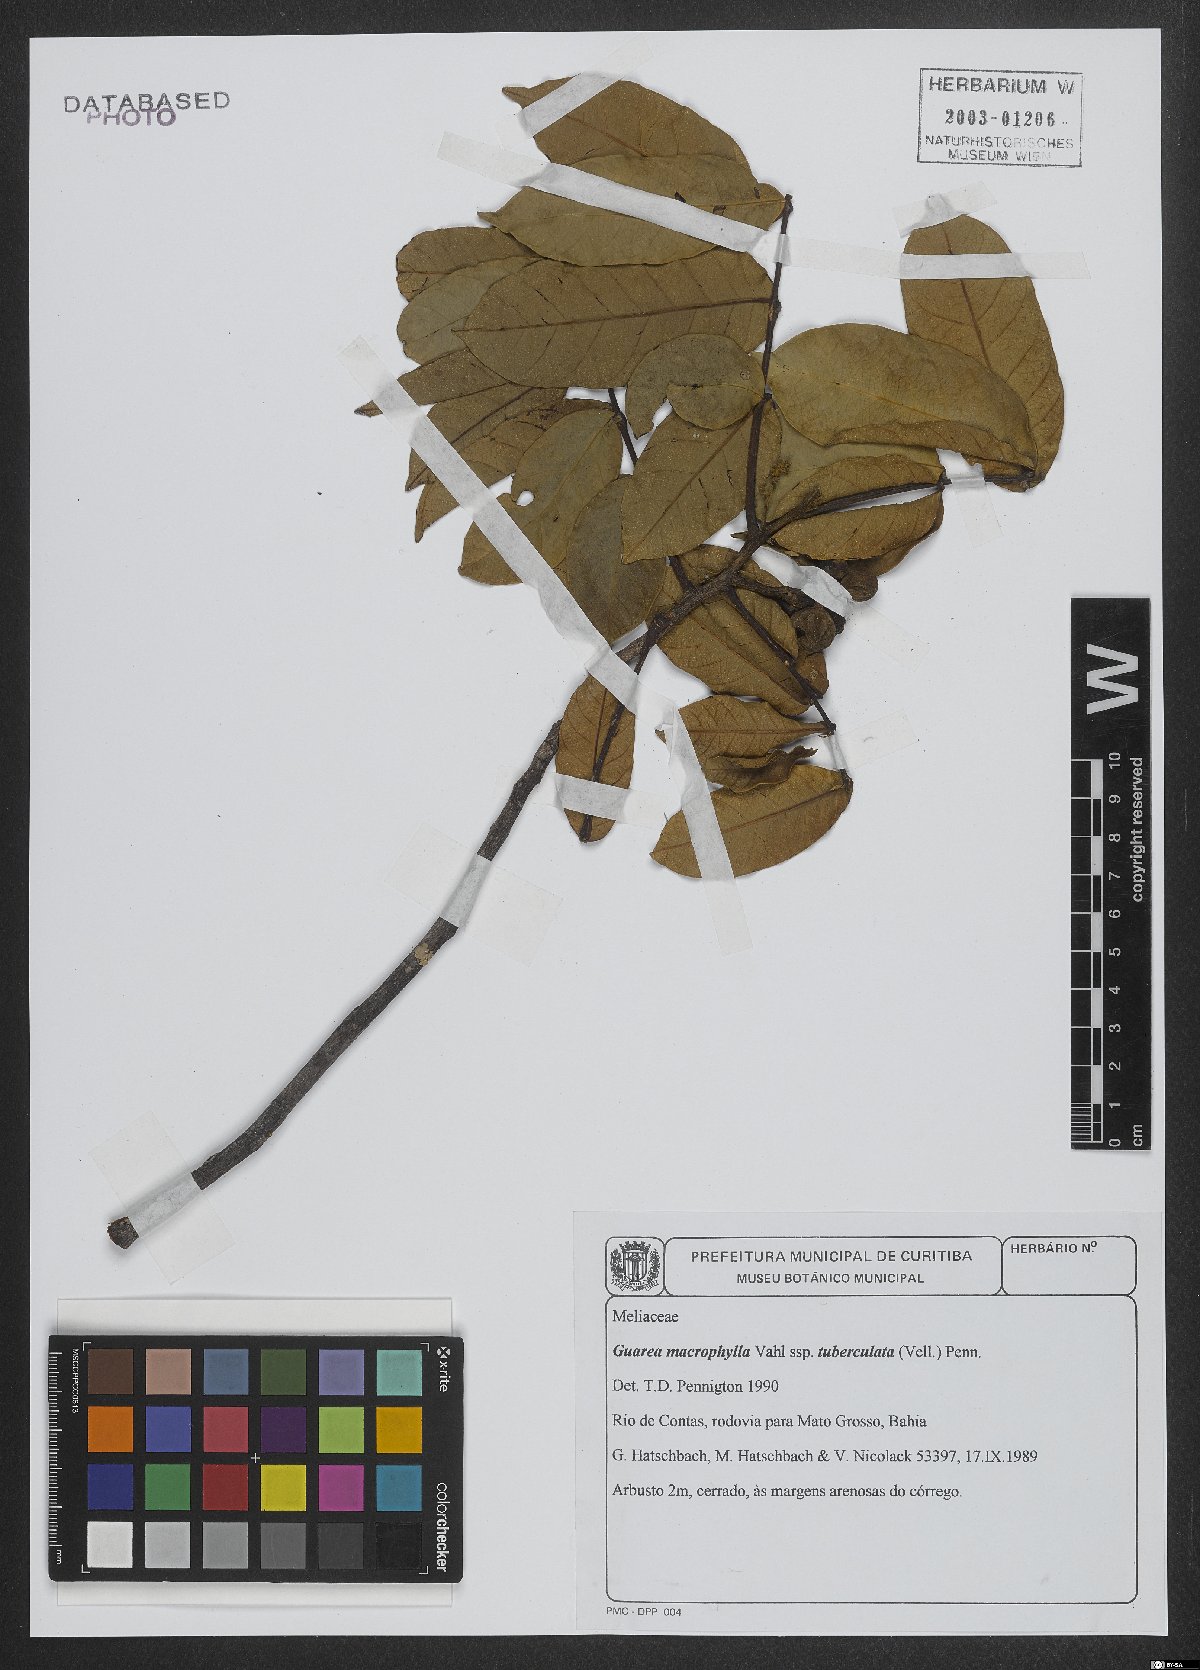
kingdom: Plantae
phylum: Tracheophyta
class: Magnoliopsida
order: Sapindales
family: Meliaceae
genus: Guarea
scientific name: Guarea macrophylla
